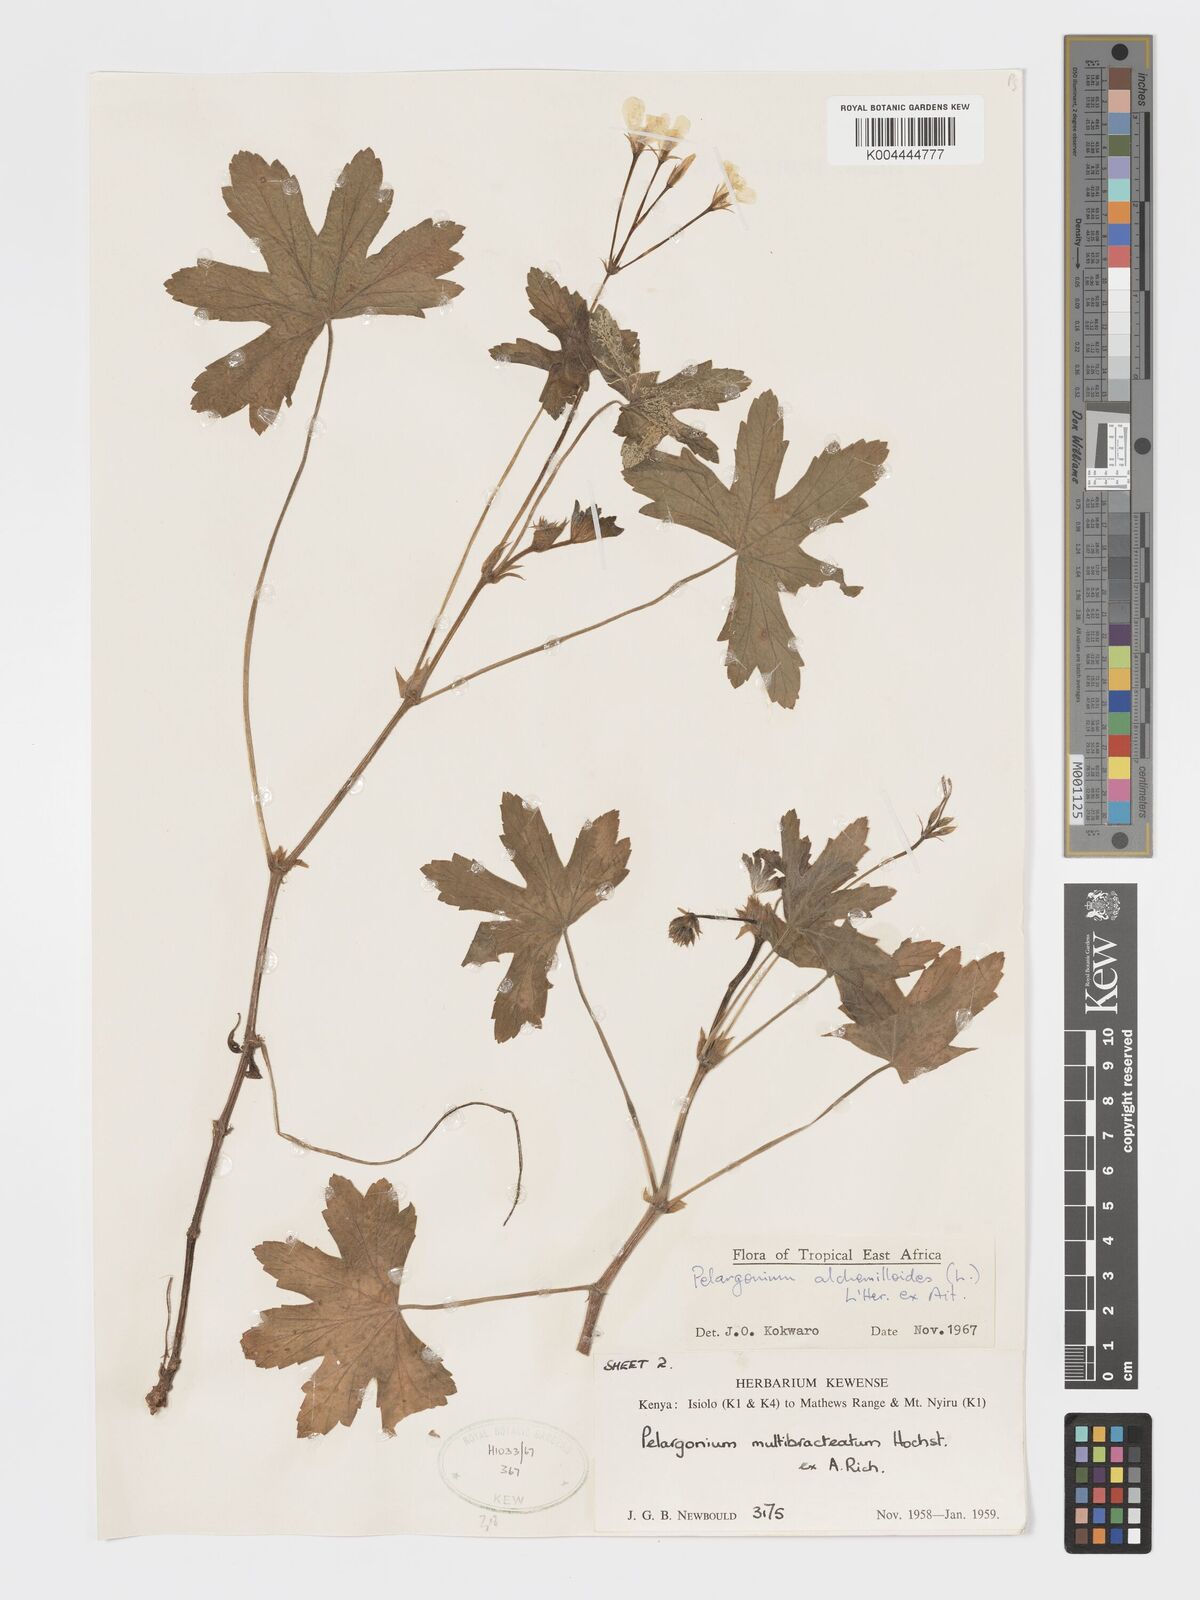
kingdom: Plantae
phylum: Tracheophyta
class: Magnoliopsida
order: Geraniales
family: Geraniaceae
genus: Pelargonium
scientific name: Pelargonium alchemilloides
